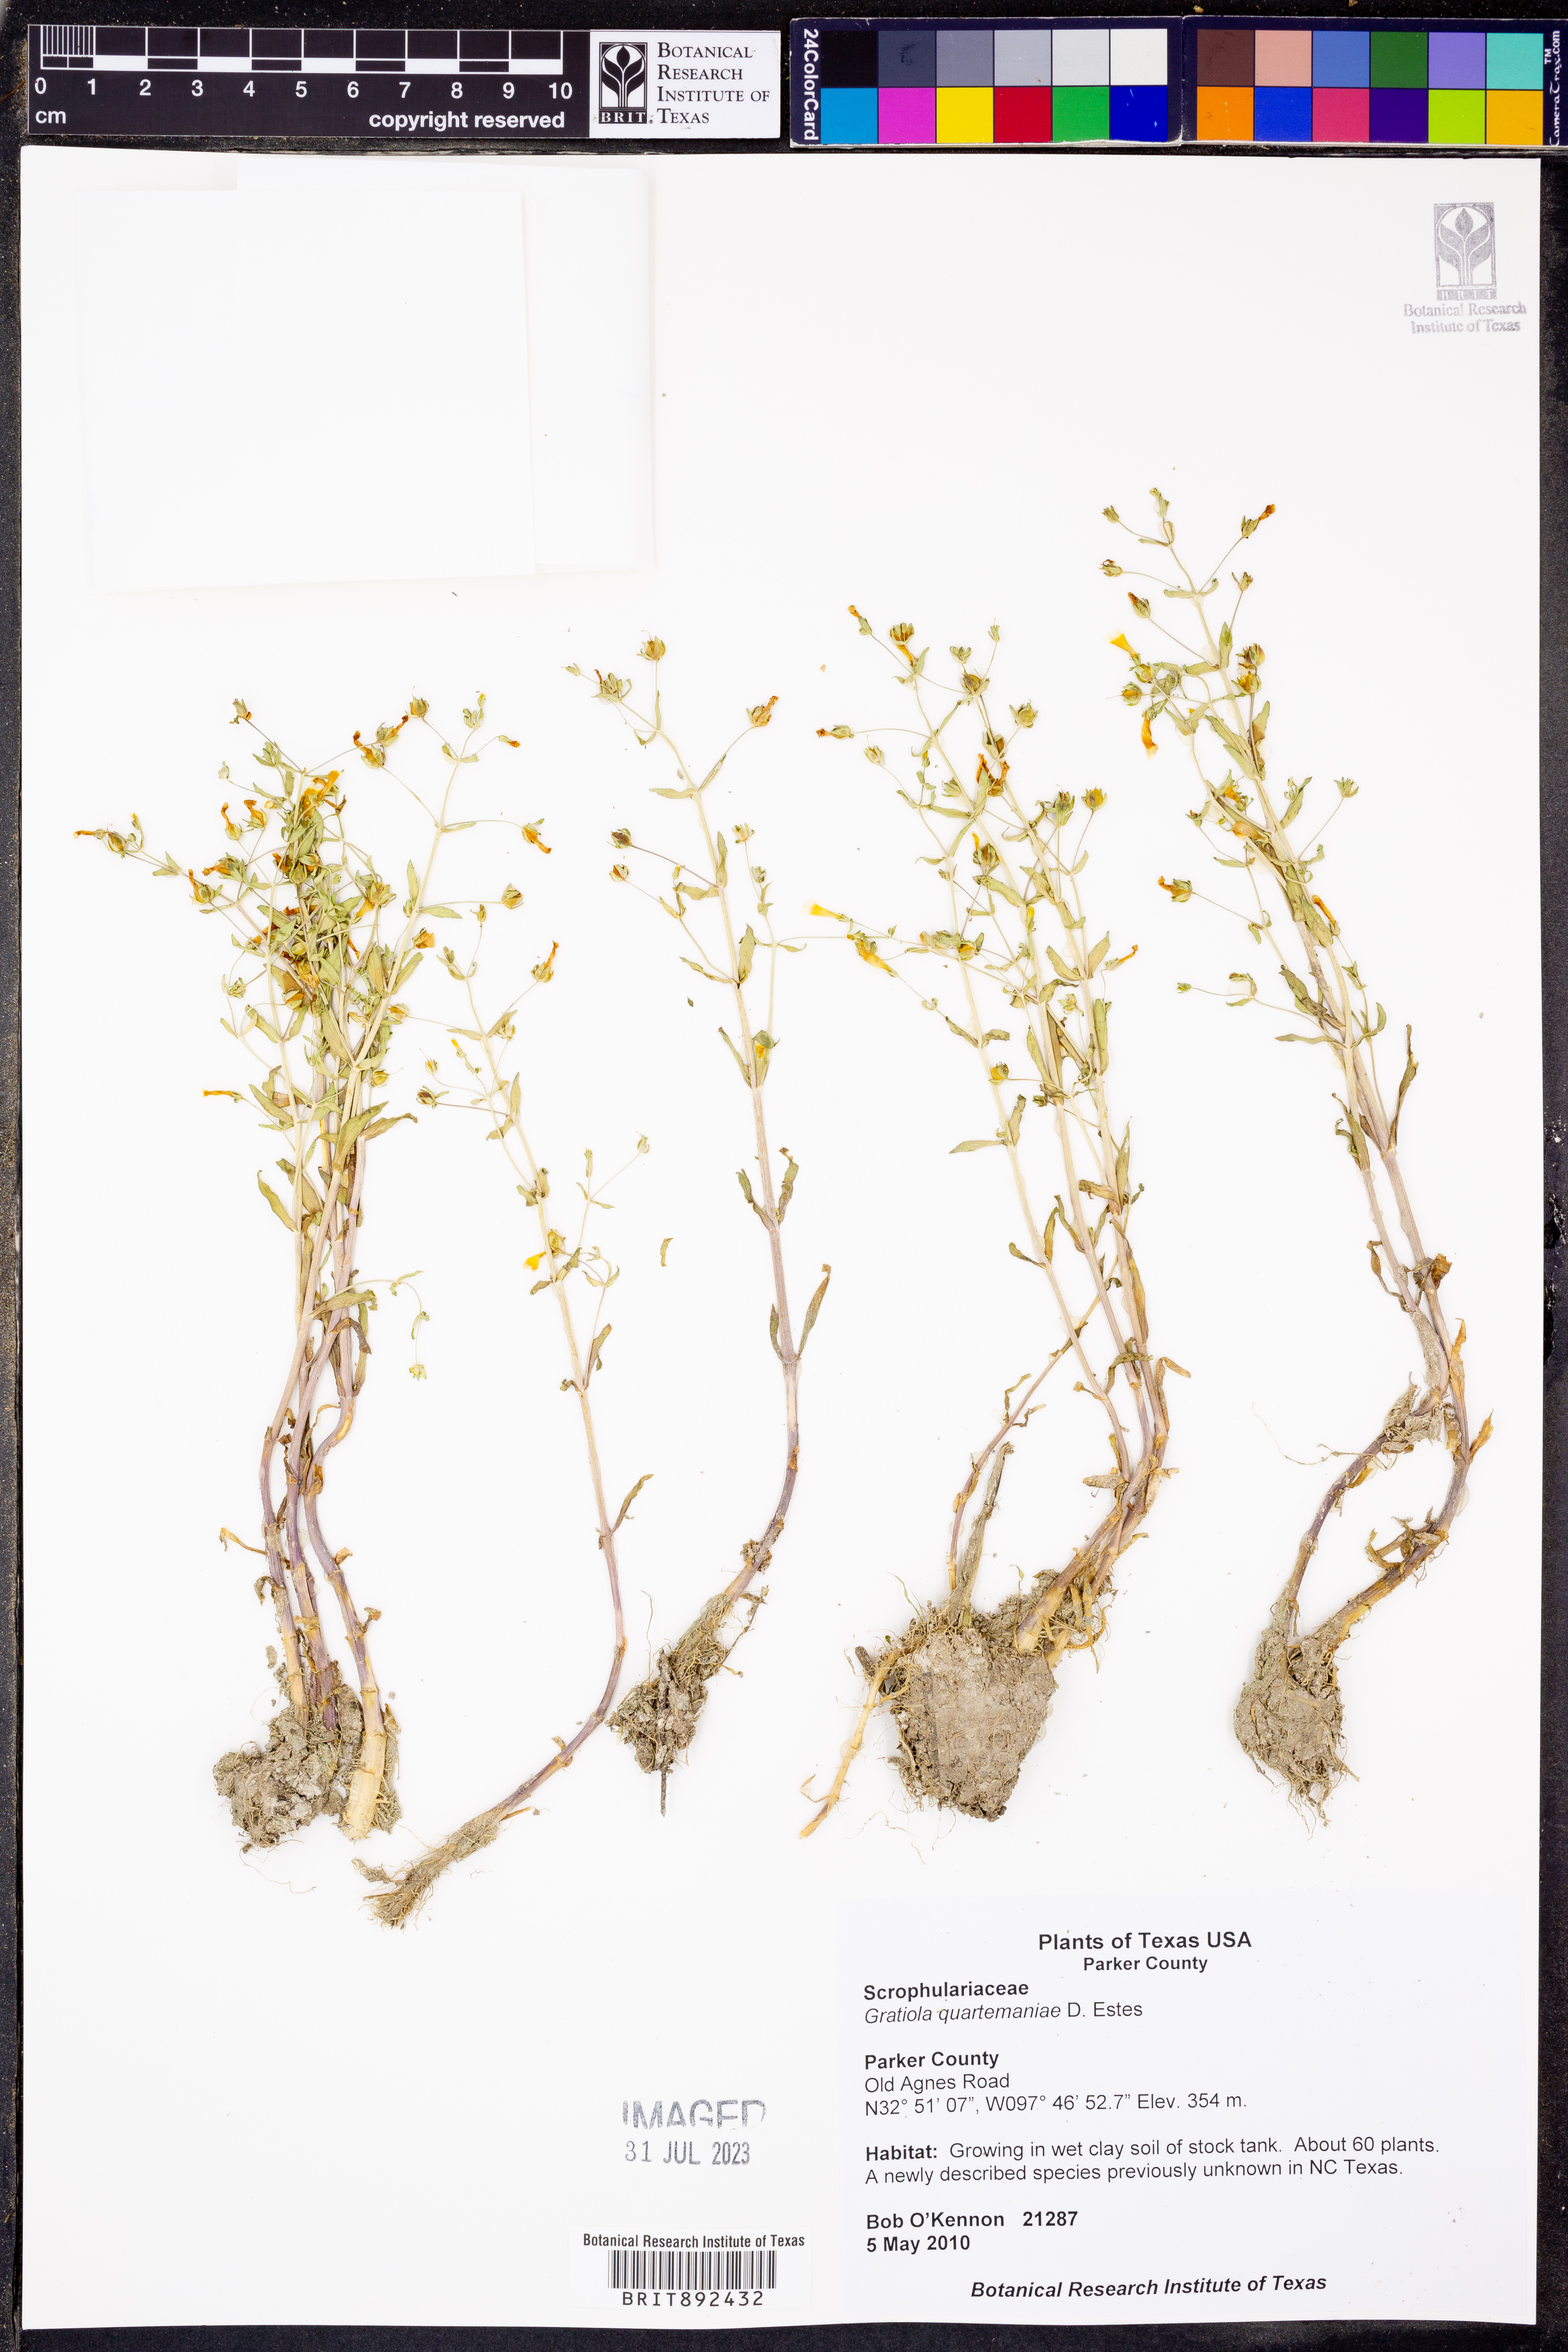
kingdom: Plantae
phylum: Tracheophyta
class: Magnoliopsida
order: Lamiales
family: Plantaginaceae
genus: Gratiola
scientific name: Gratiola quartermaniae
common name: Quarterman's hedge-hyssop
